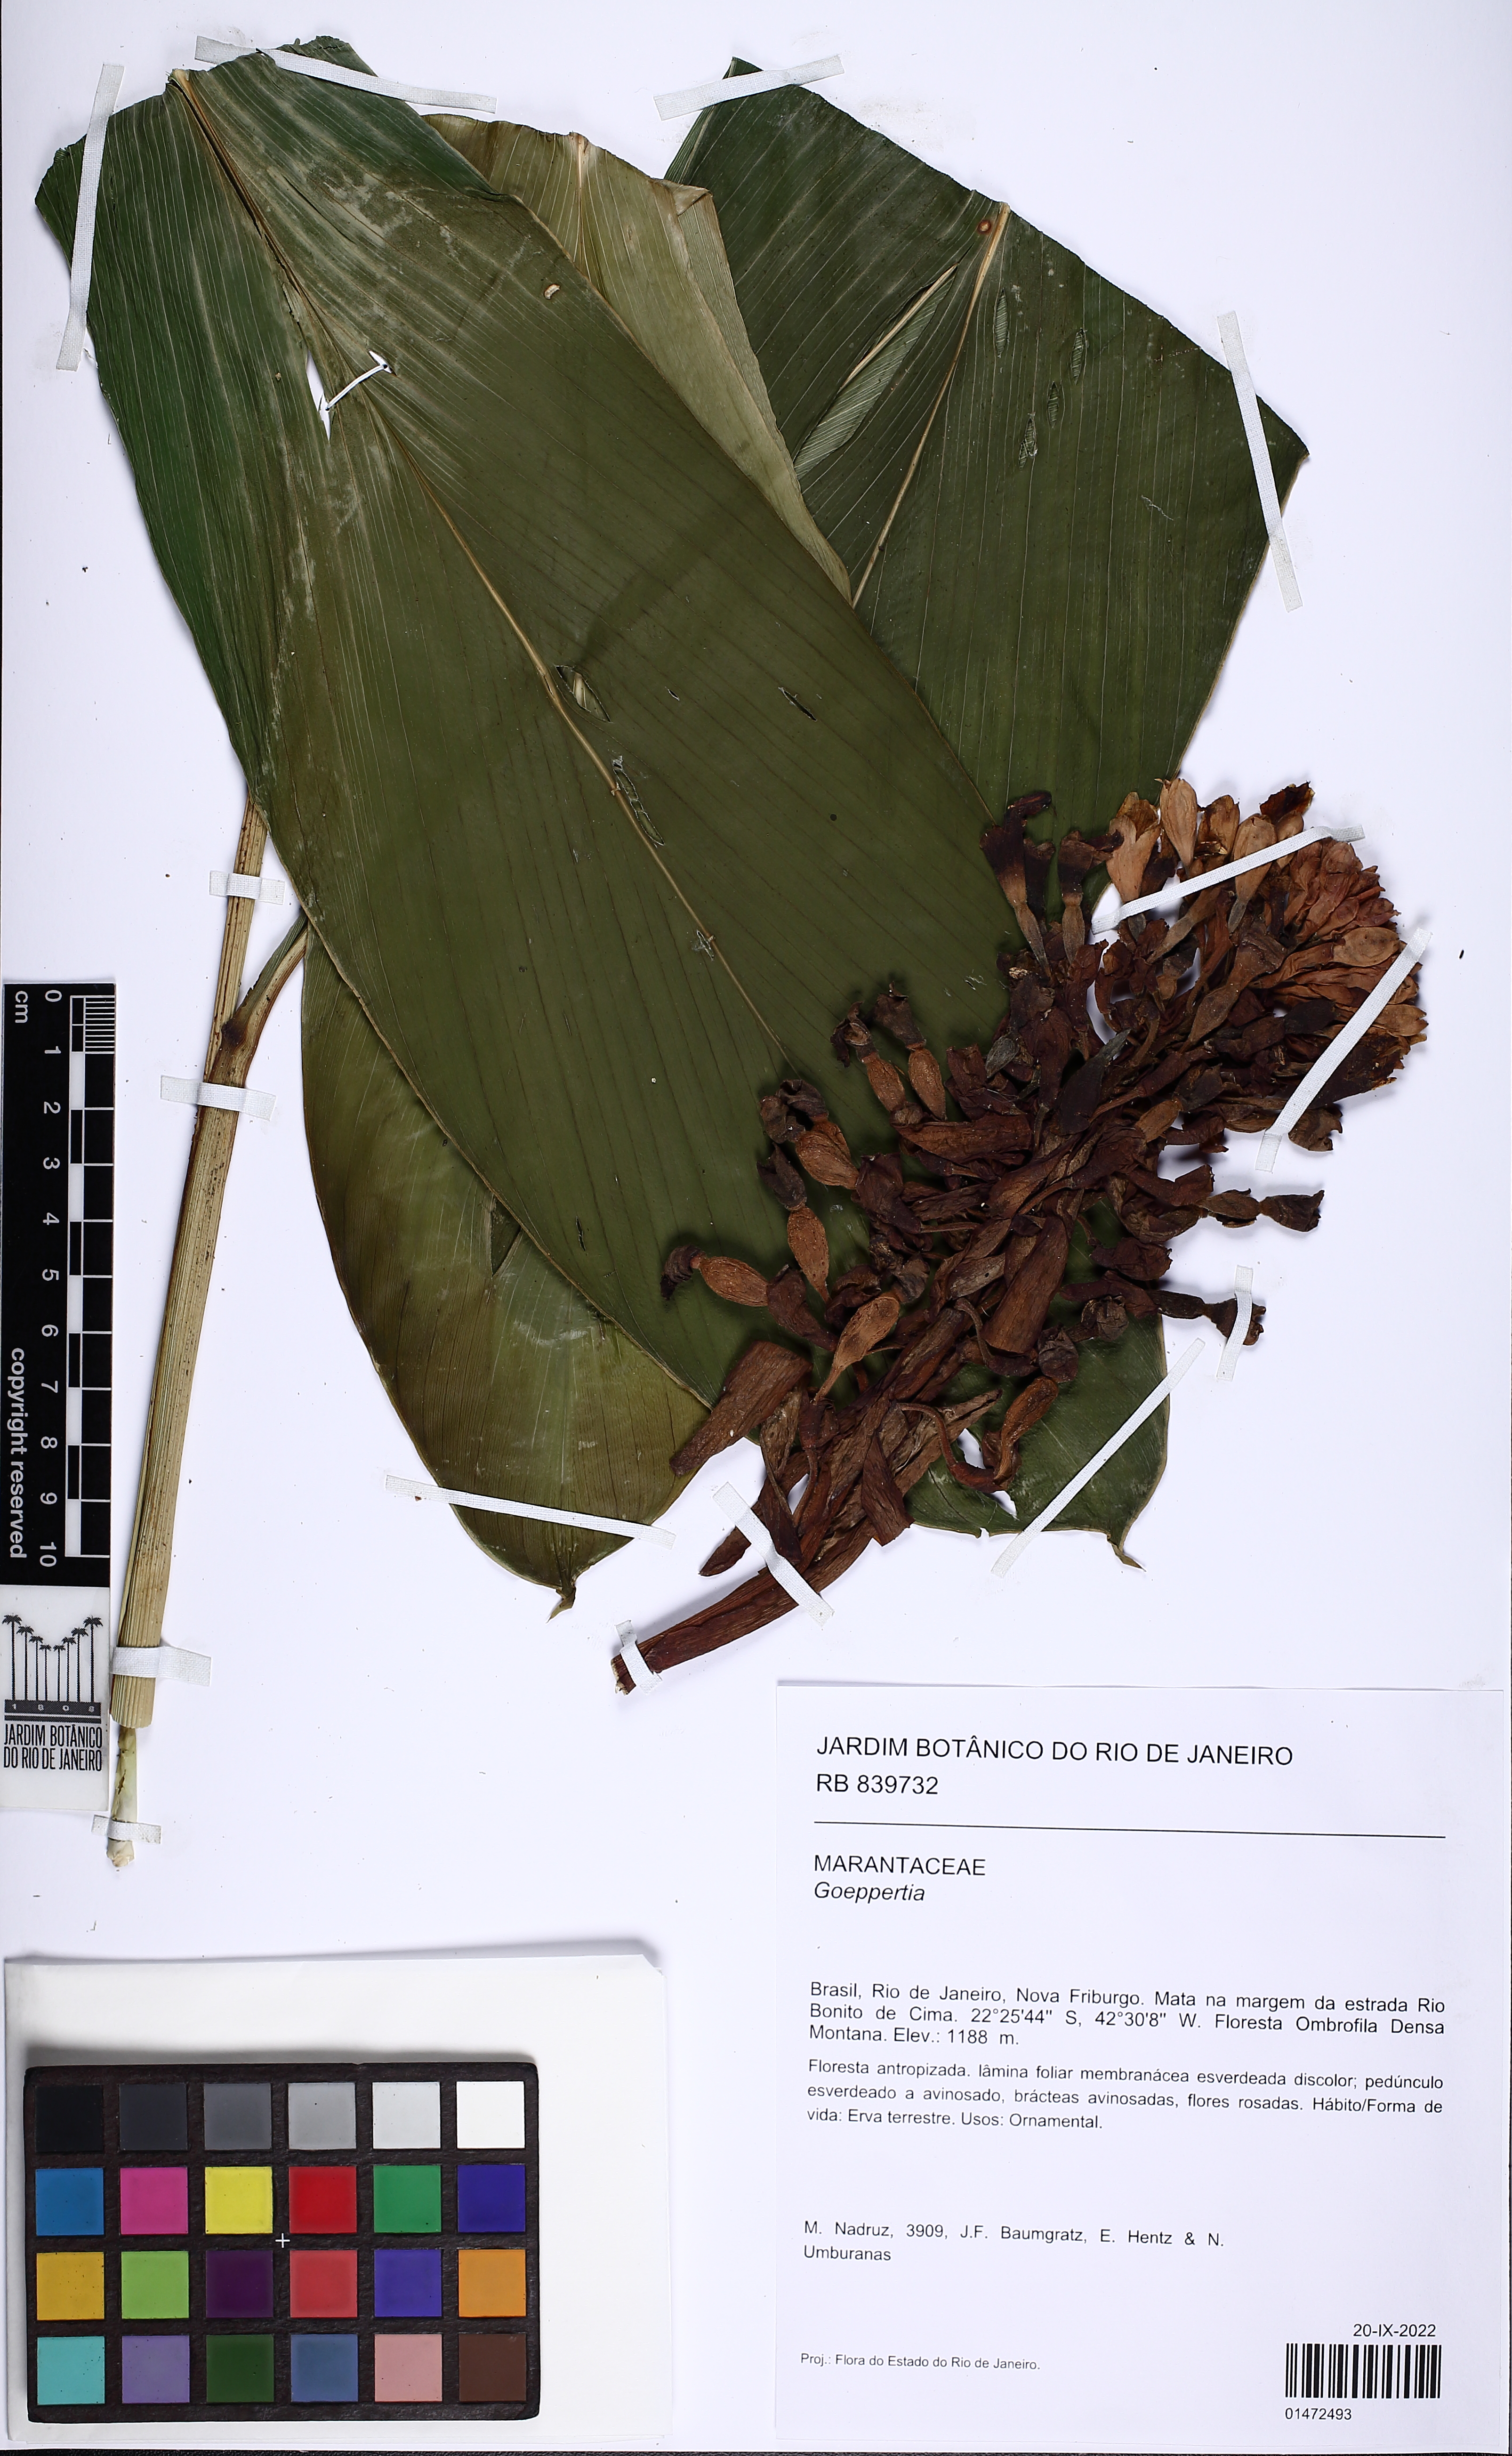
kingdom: Plantae
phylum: Tracheophyta
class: Liliopsida
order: Zingiberales
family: Marantaceae
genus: Goeppertia
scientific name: Goeppertia
